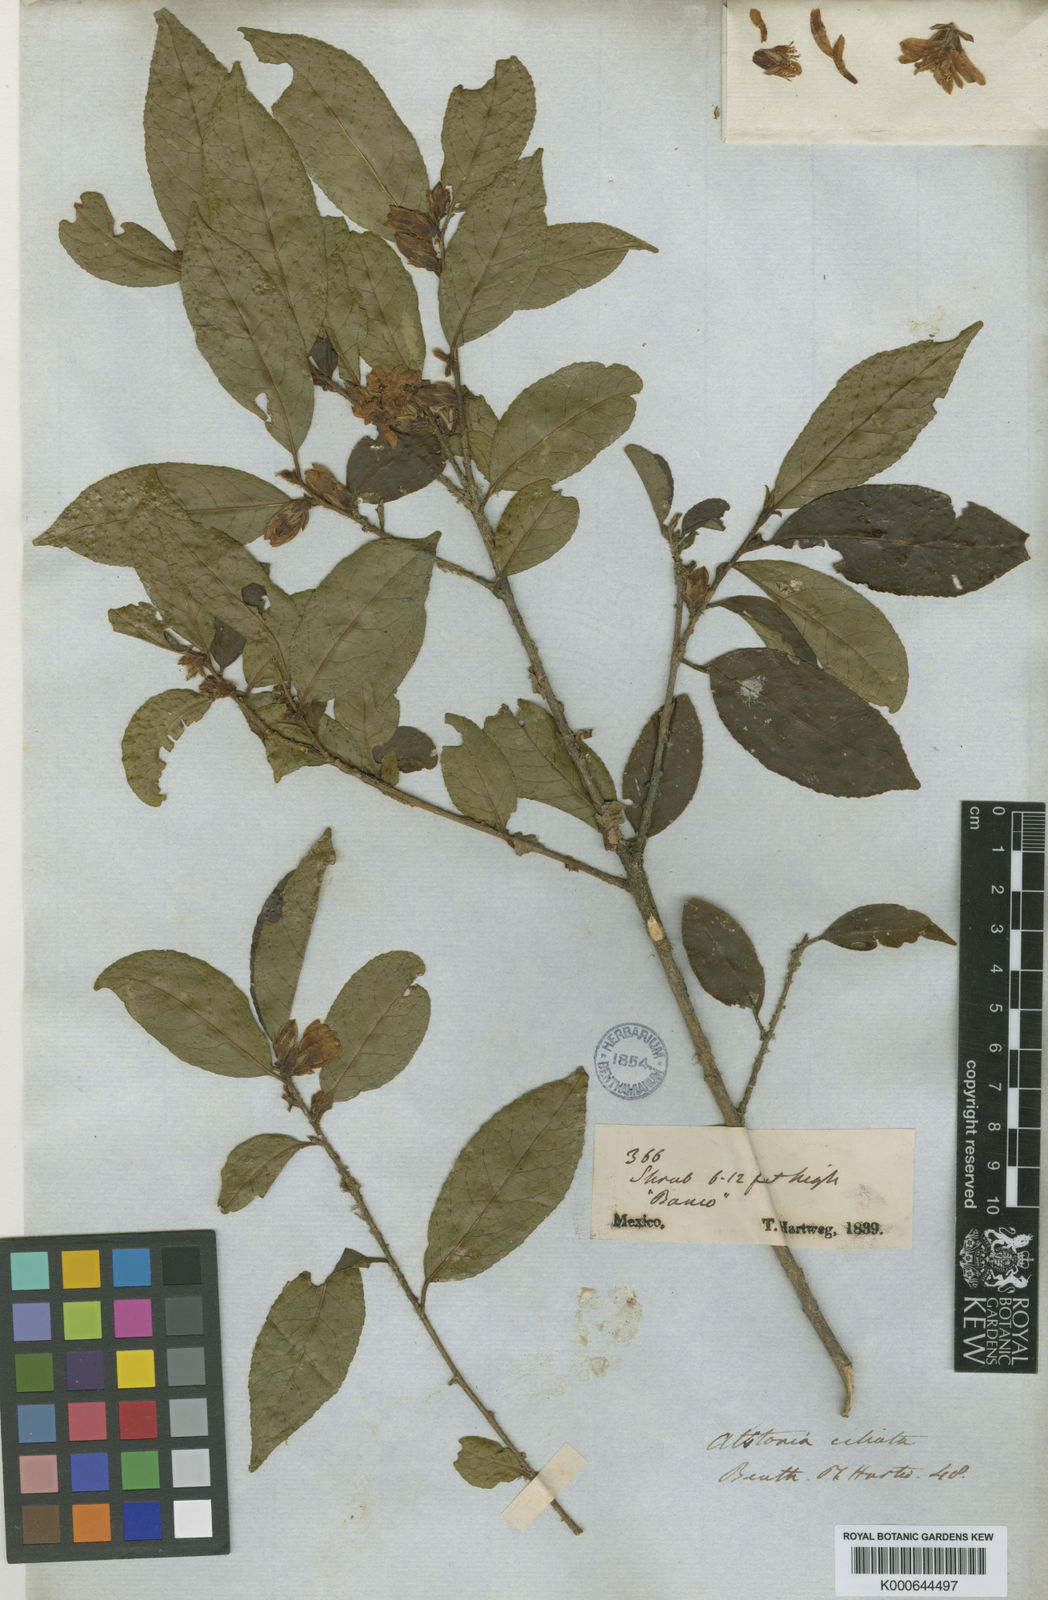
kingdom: Plantae
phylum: Tracheophyta
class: Magnoliopsida
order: Ericales
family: Symplocaceae
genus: Symplocos
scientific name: Symplocos coccinea
